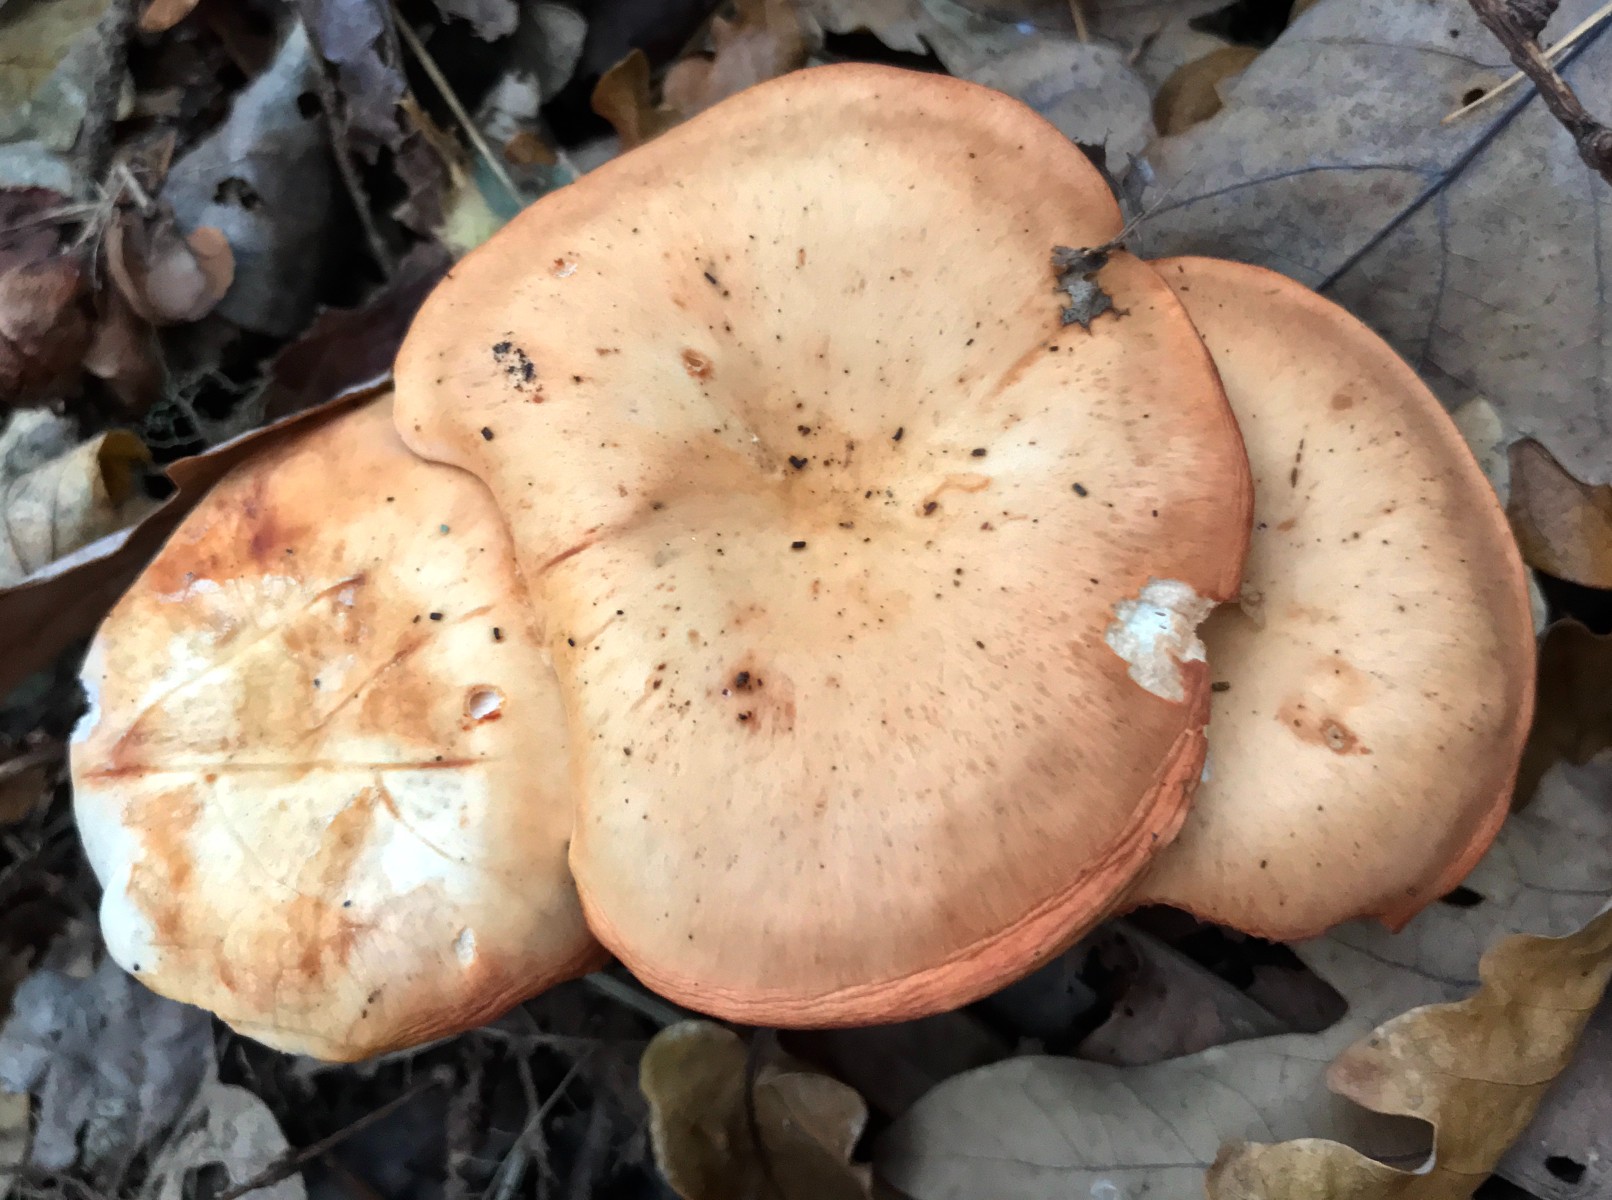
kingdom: Fungi
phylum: Basidiomycota
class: Agaricomycetes
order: Agaricales
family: Tricholomataceae
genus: Paralepista
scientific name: Paralepista flaccida
